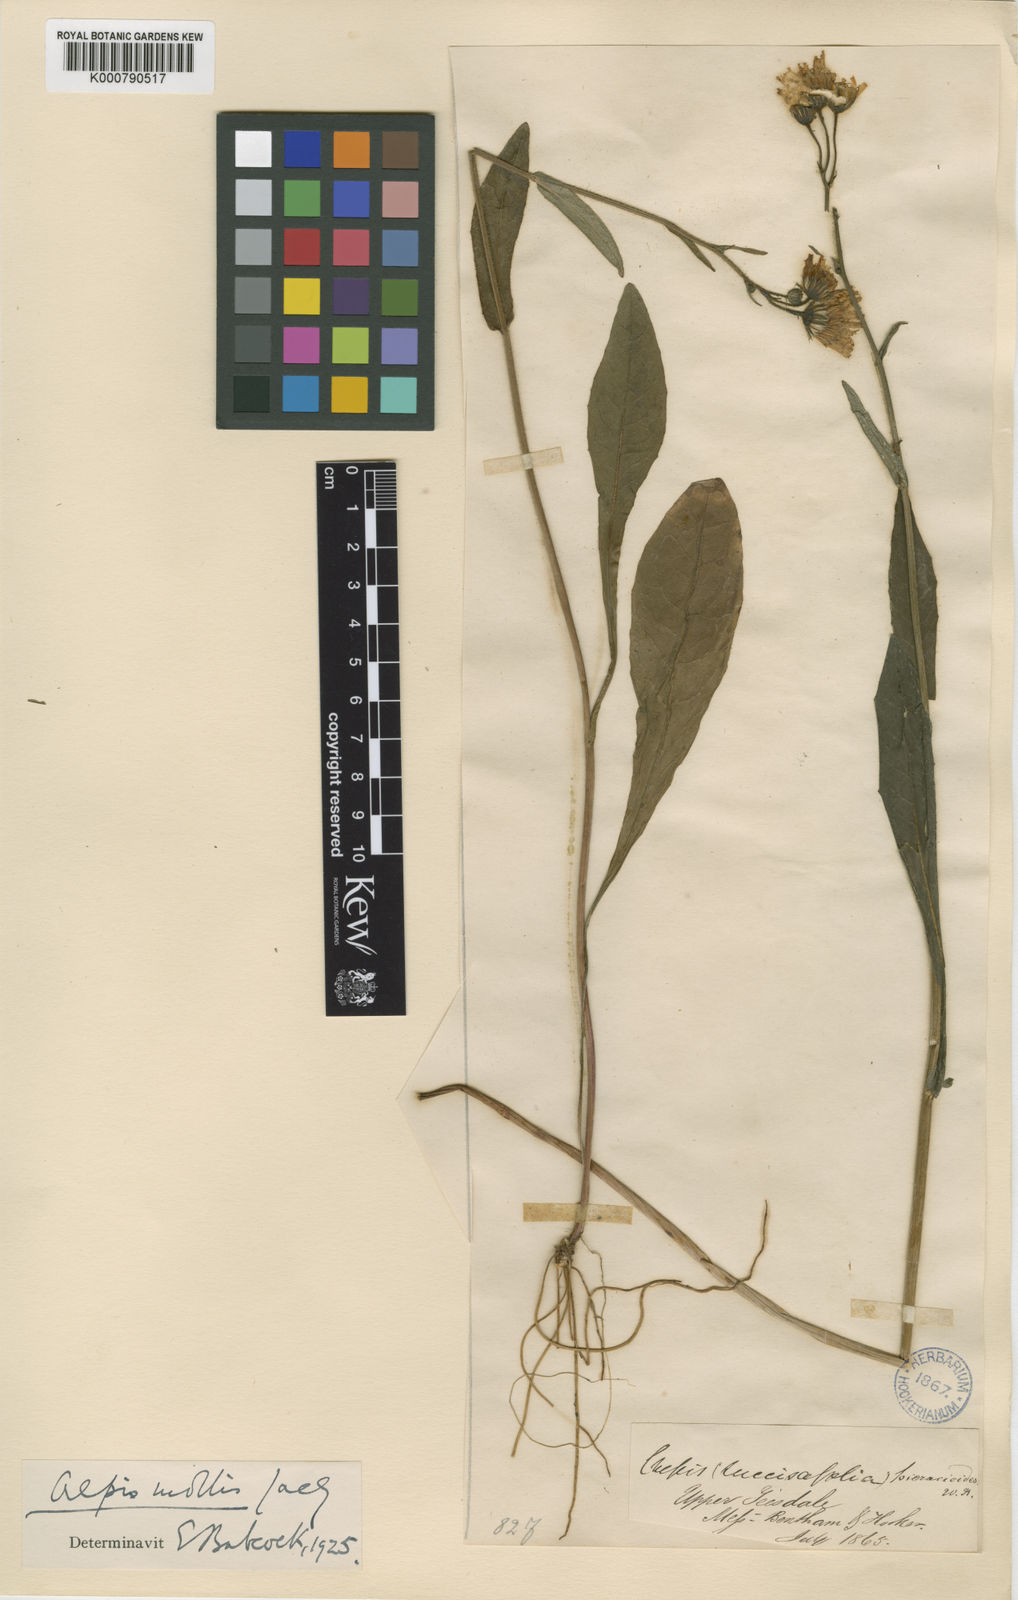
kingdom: Plantae
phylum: Tracheophyta
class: Magnoliopsida
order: Asterales
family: Asteraceae
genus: Crepis
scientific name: Crepis mollis
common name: Northern hawk's-beard
